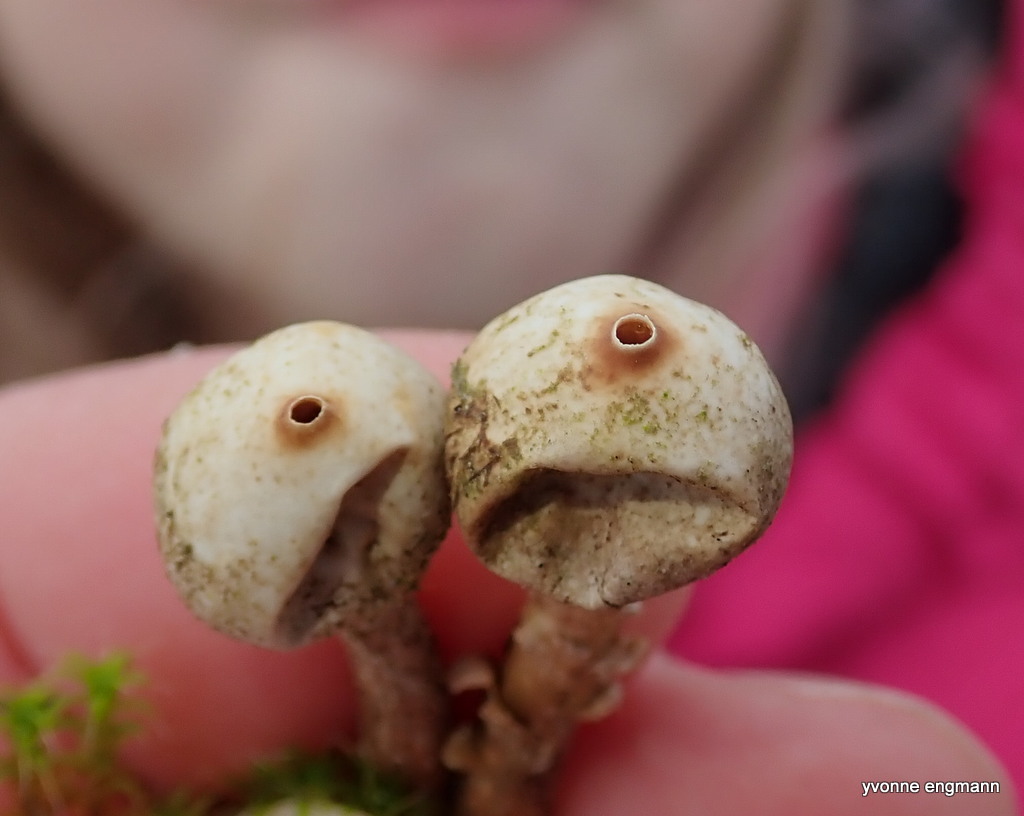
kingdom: Fungi
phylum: Basidiomycota
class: Agaricomycetes
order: Agaricales
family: Agaricaceae
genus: Tulostoma
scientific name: Tulostoma brumale
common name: vinter-stilkbovist
